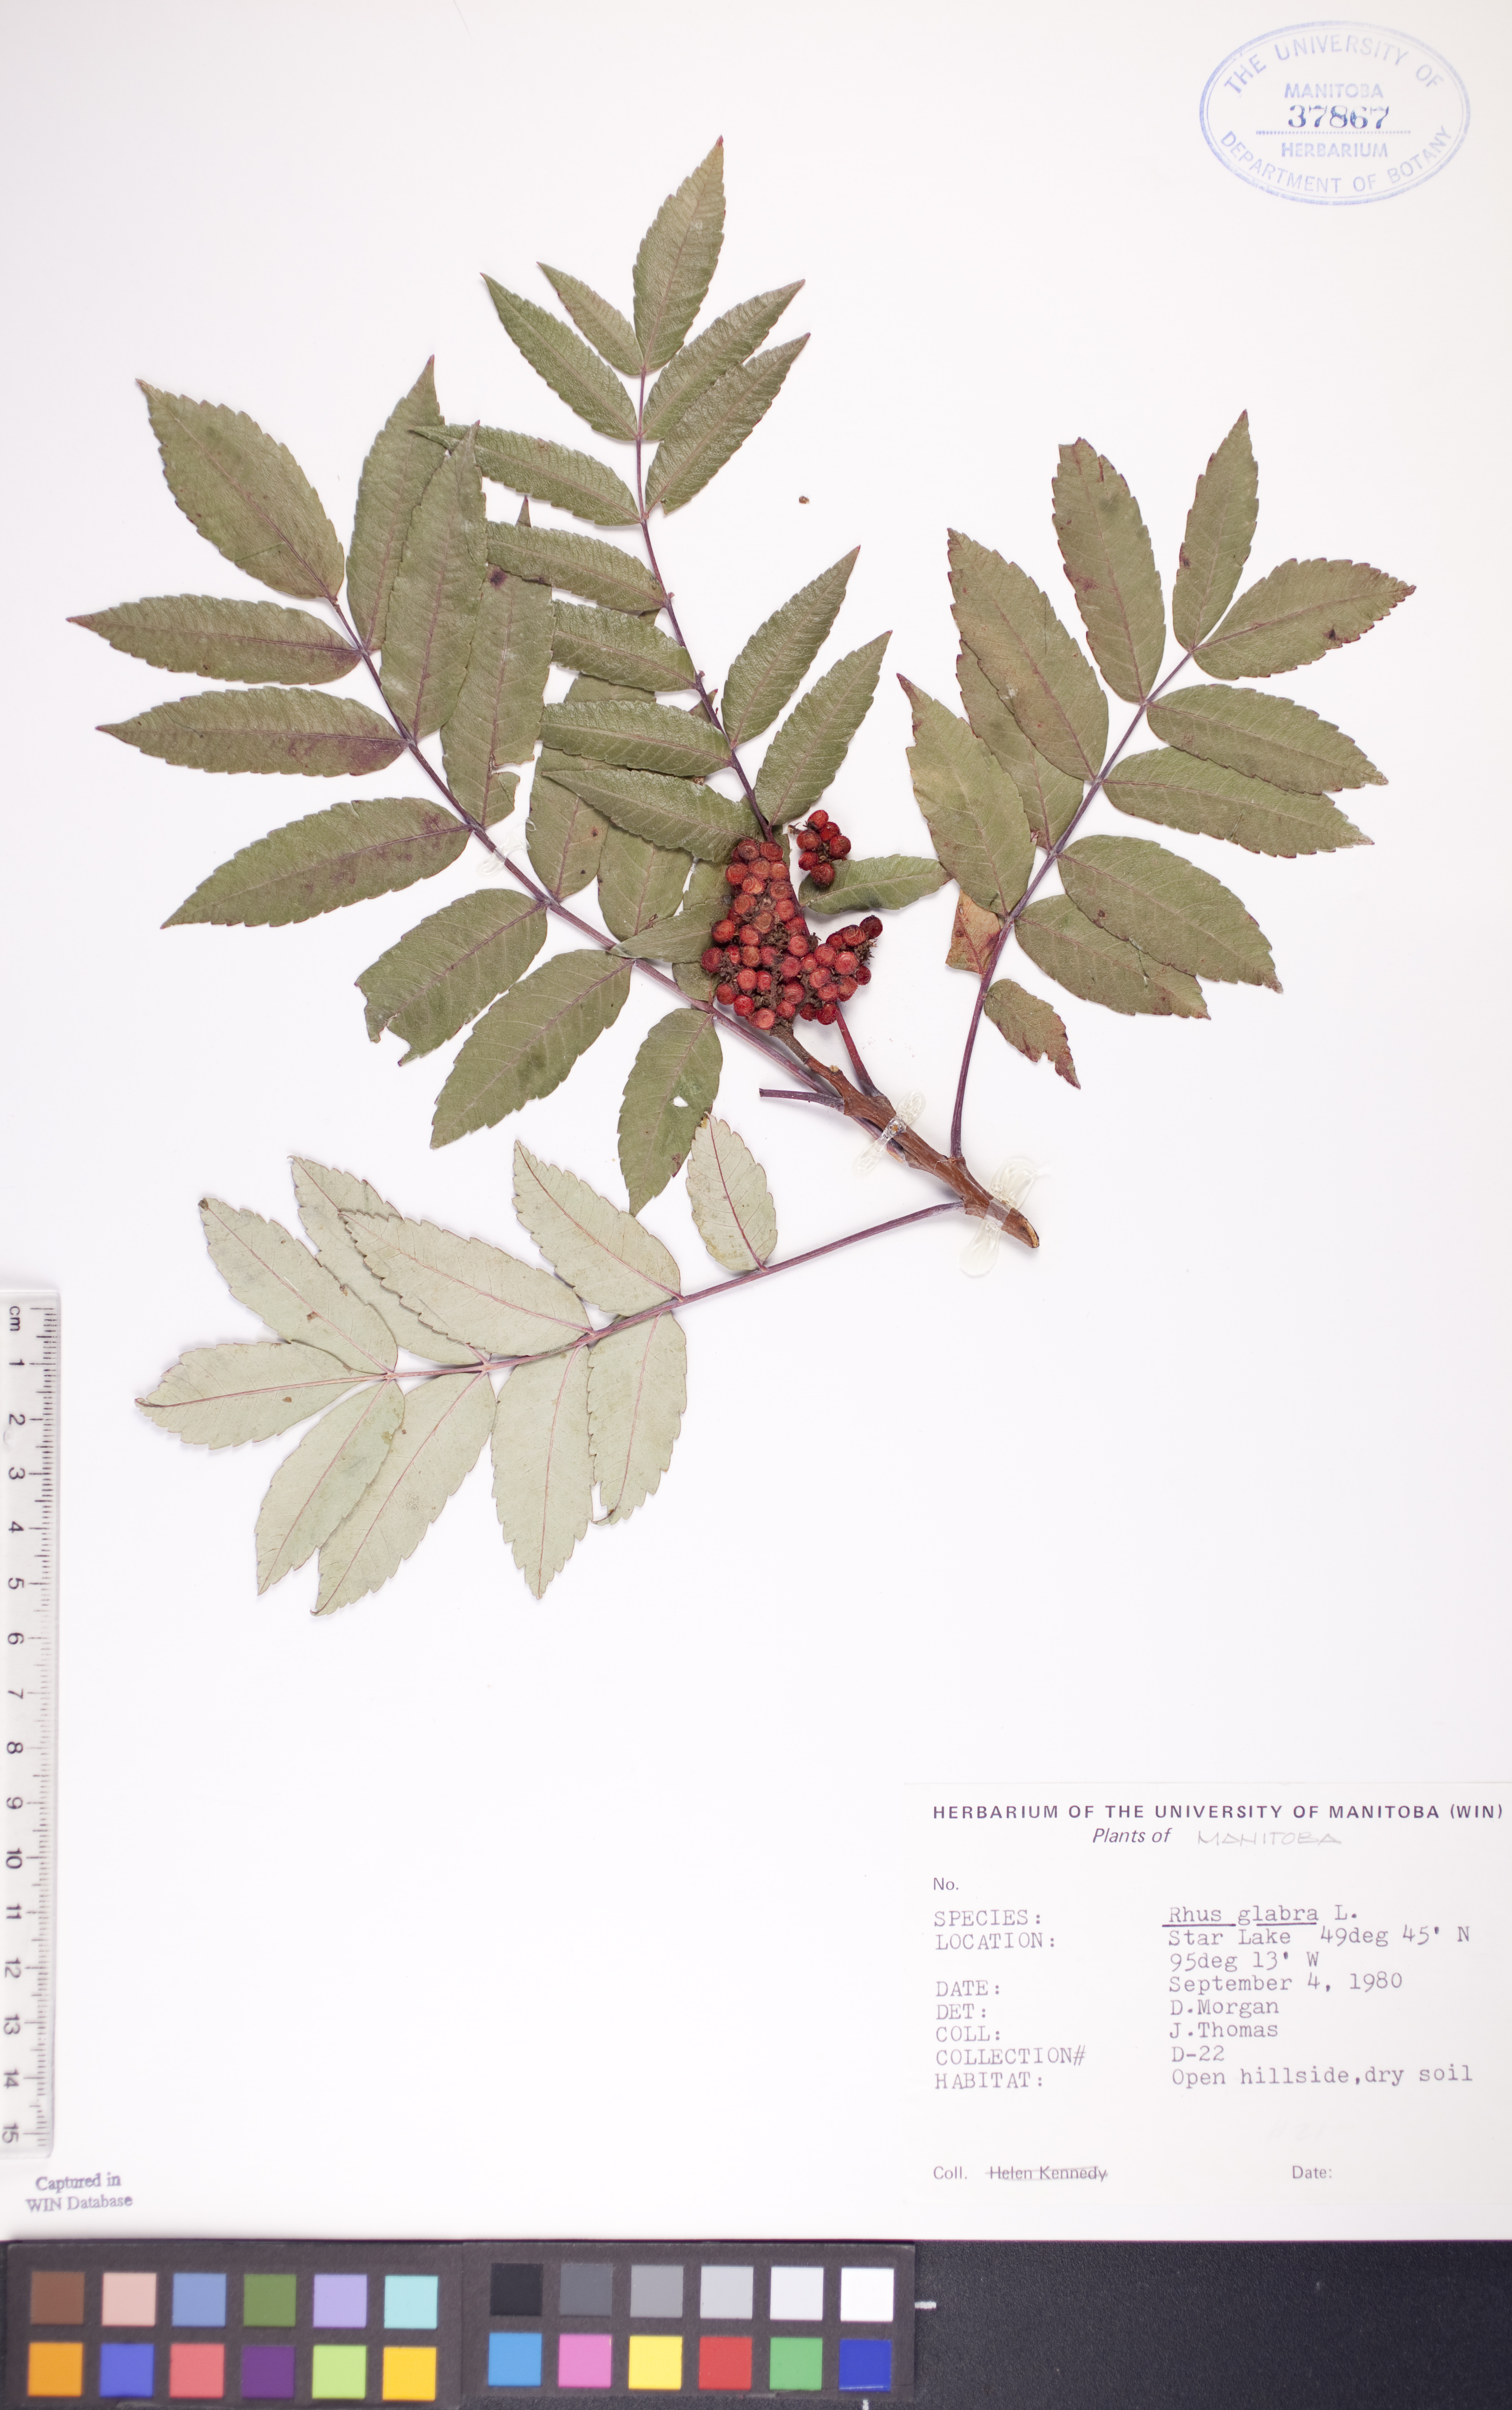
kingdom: Plantae
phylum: Tracheophyta
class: Magnoliopsida
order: Sapindales
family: Anacardiaceae
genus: Rhus
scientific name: Rhus glabra
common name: Scarlet sumac
